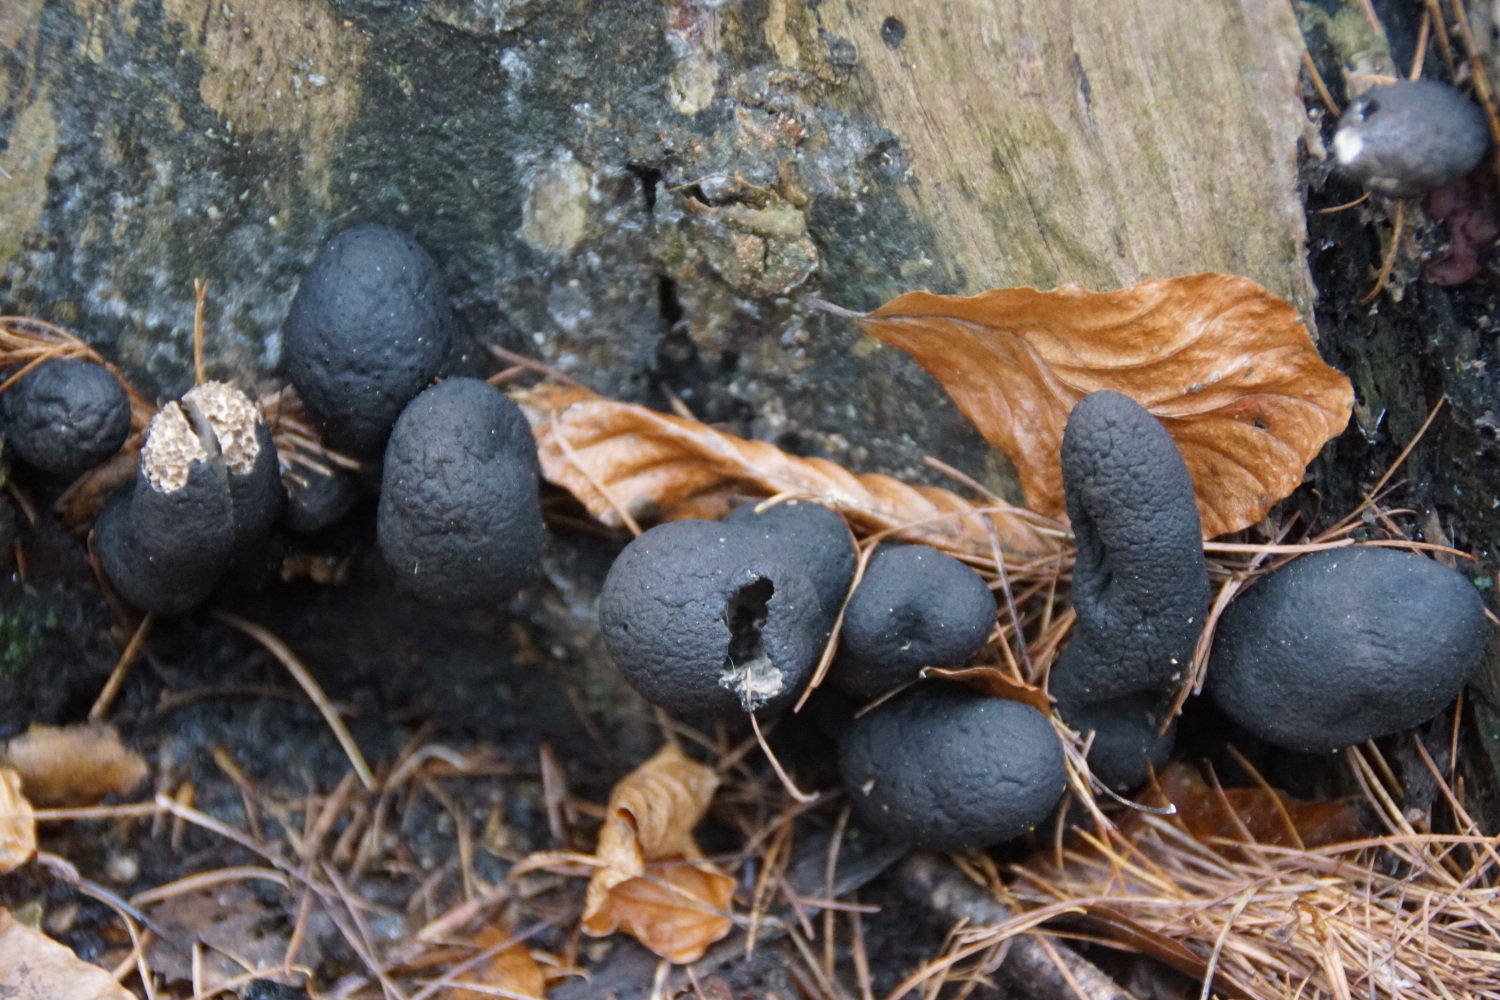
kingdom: Fungi
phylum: Ascomycota
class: Sordariomycetes
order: Xylariales
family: Xylariaceae
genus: Xylaria
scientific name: Xylaria polymorpha
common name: kølle-stødsvamp
